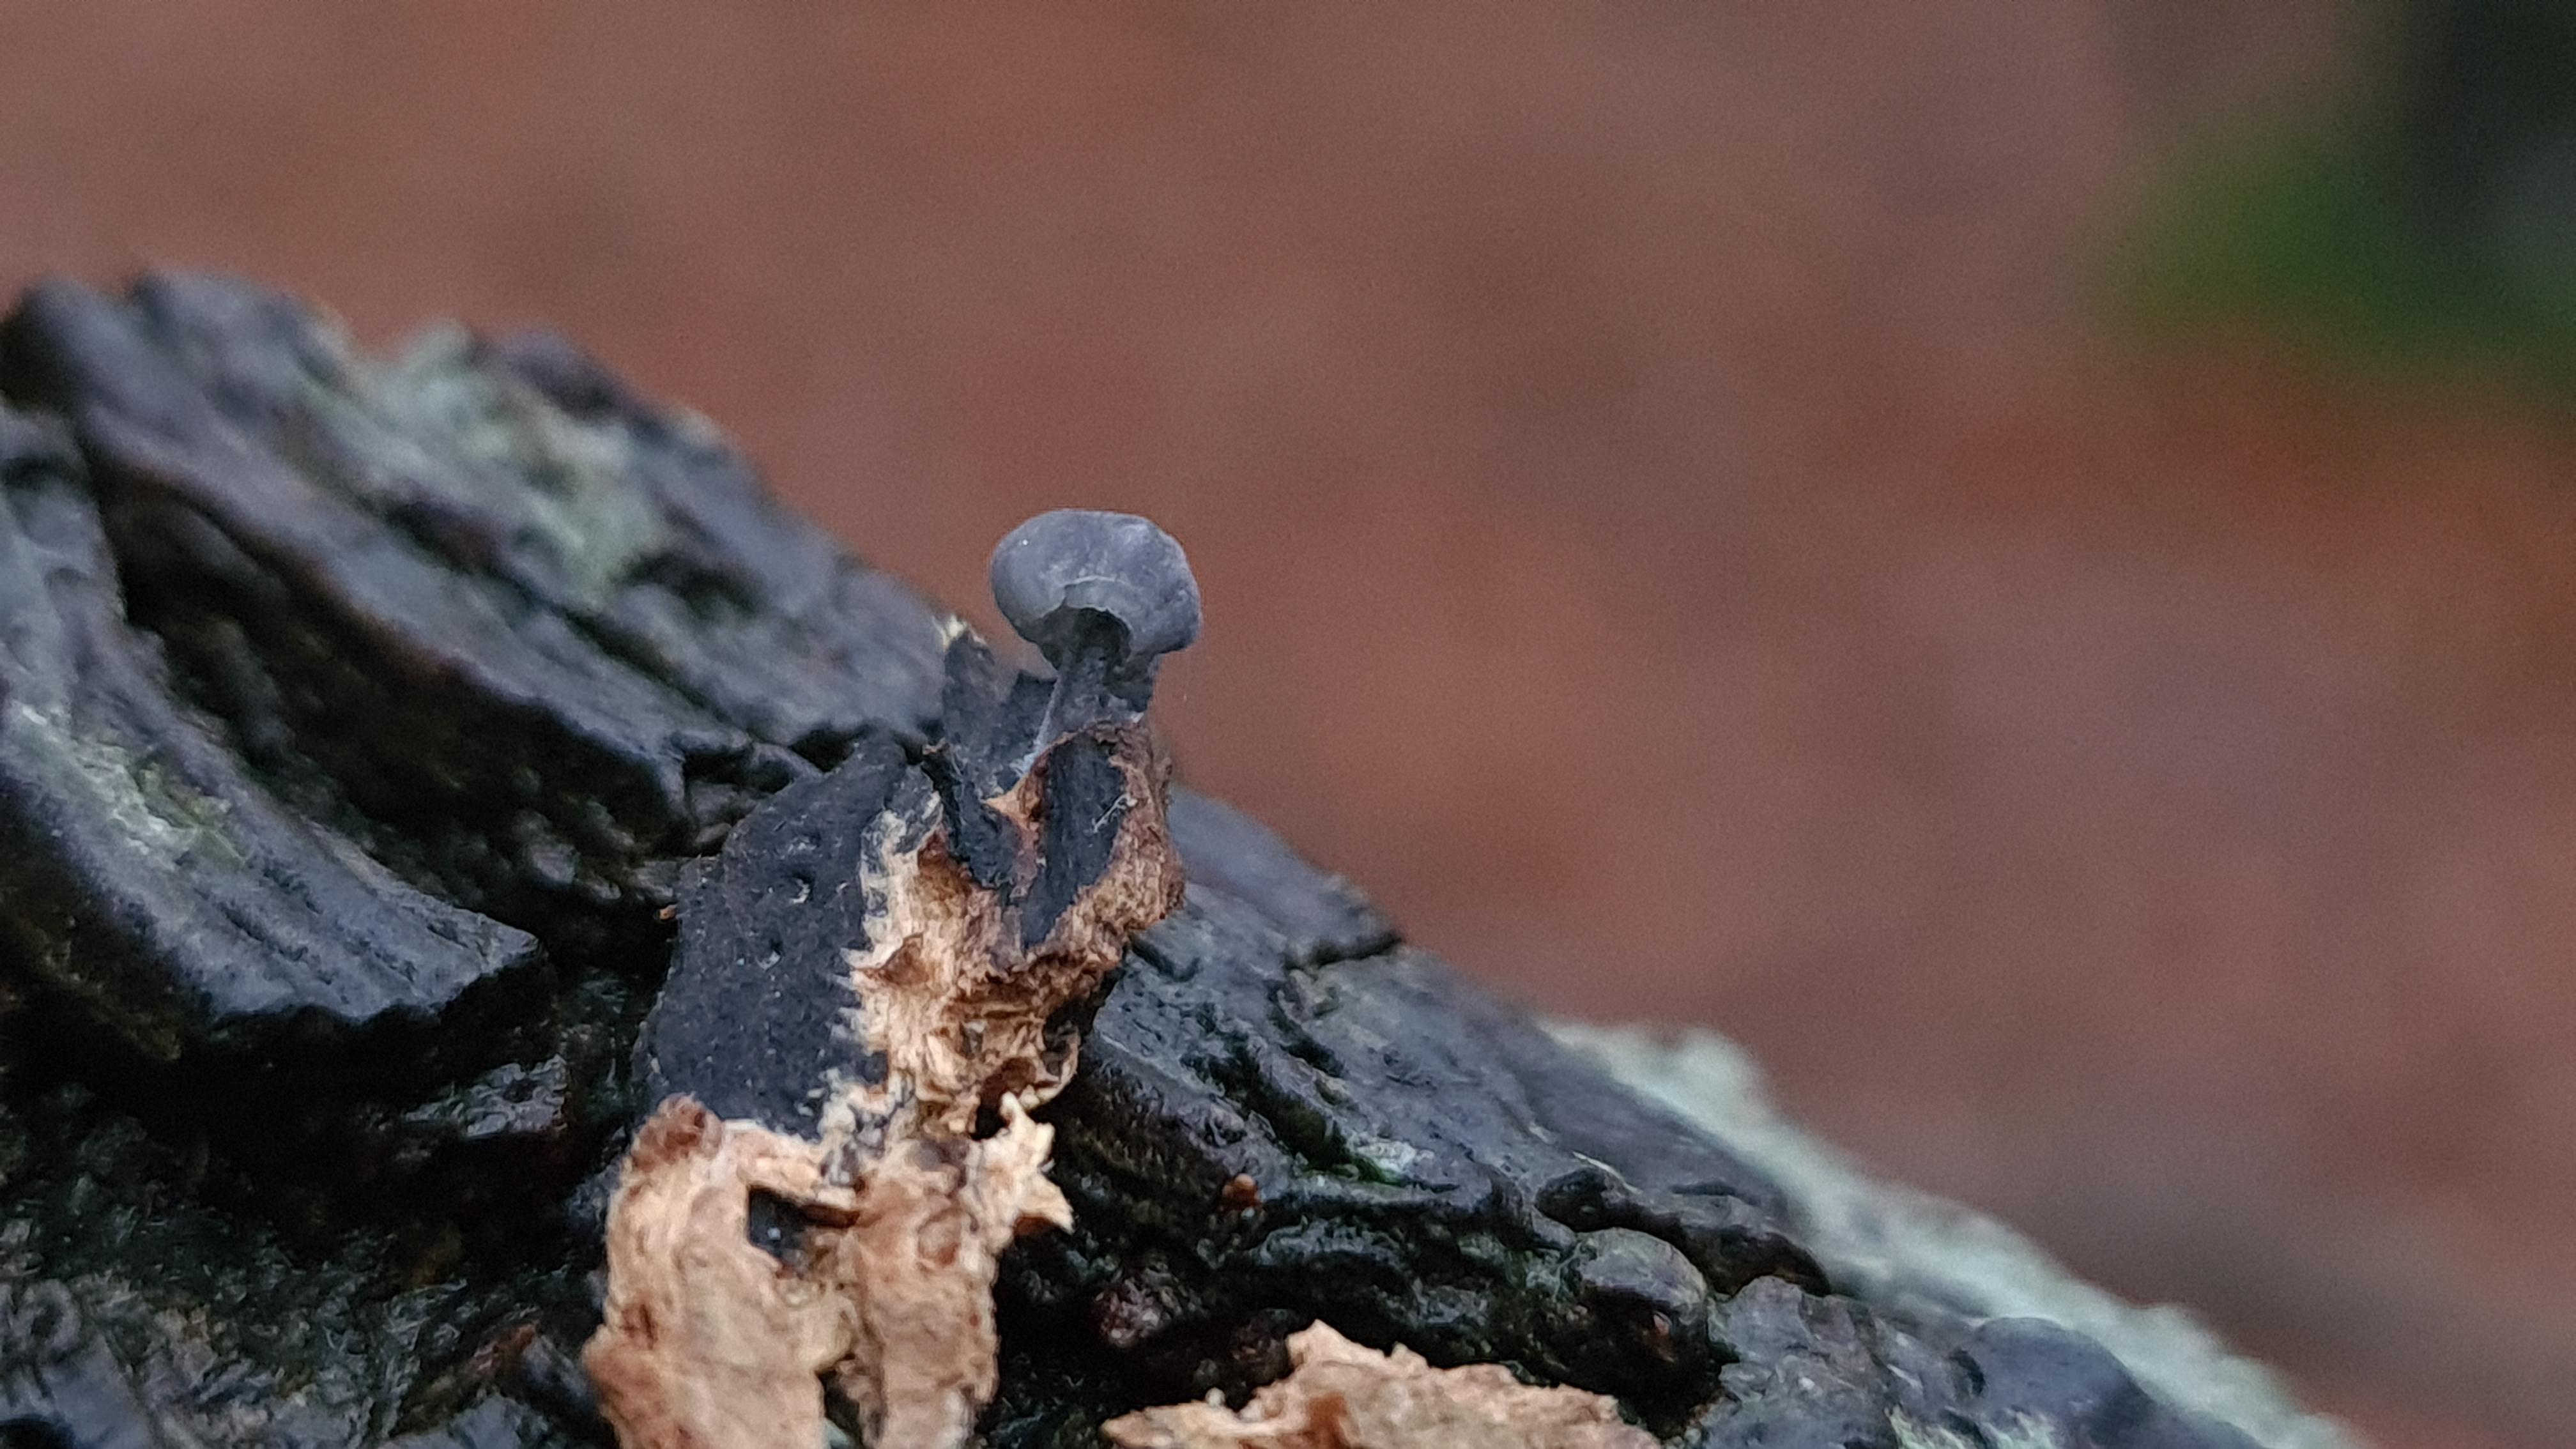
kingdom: Fungi
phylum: Basidiomycota
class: Agaricomycetes
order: Agaricales
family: Mycenaceae
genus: Mycena
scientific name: Mycena pseudocorticola
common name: gråblå bark-huesvamp
